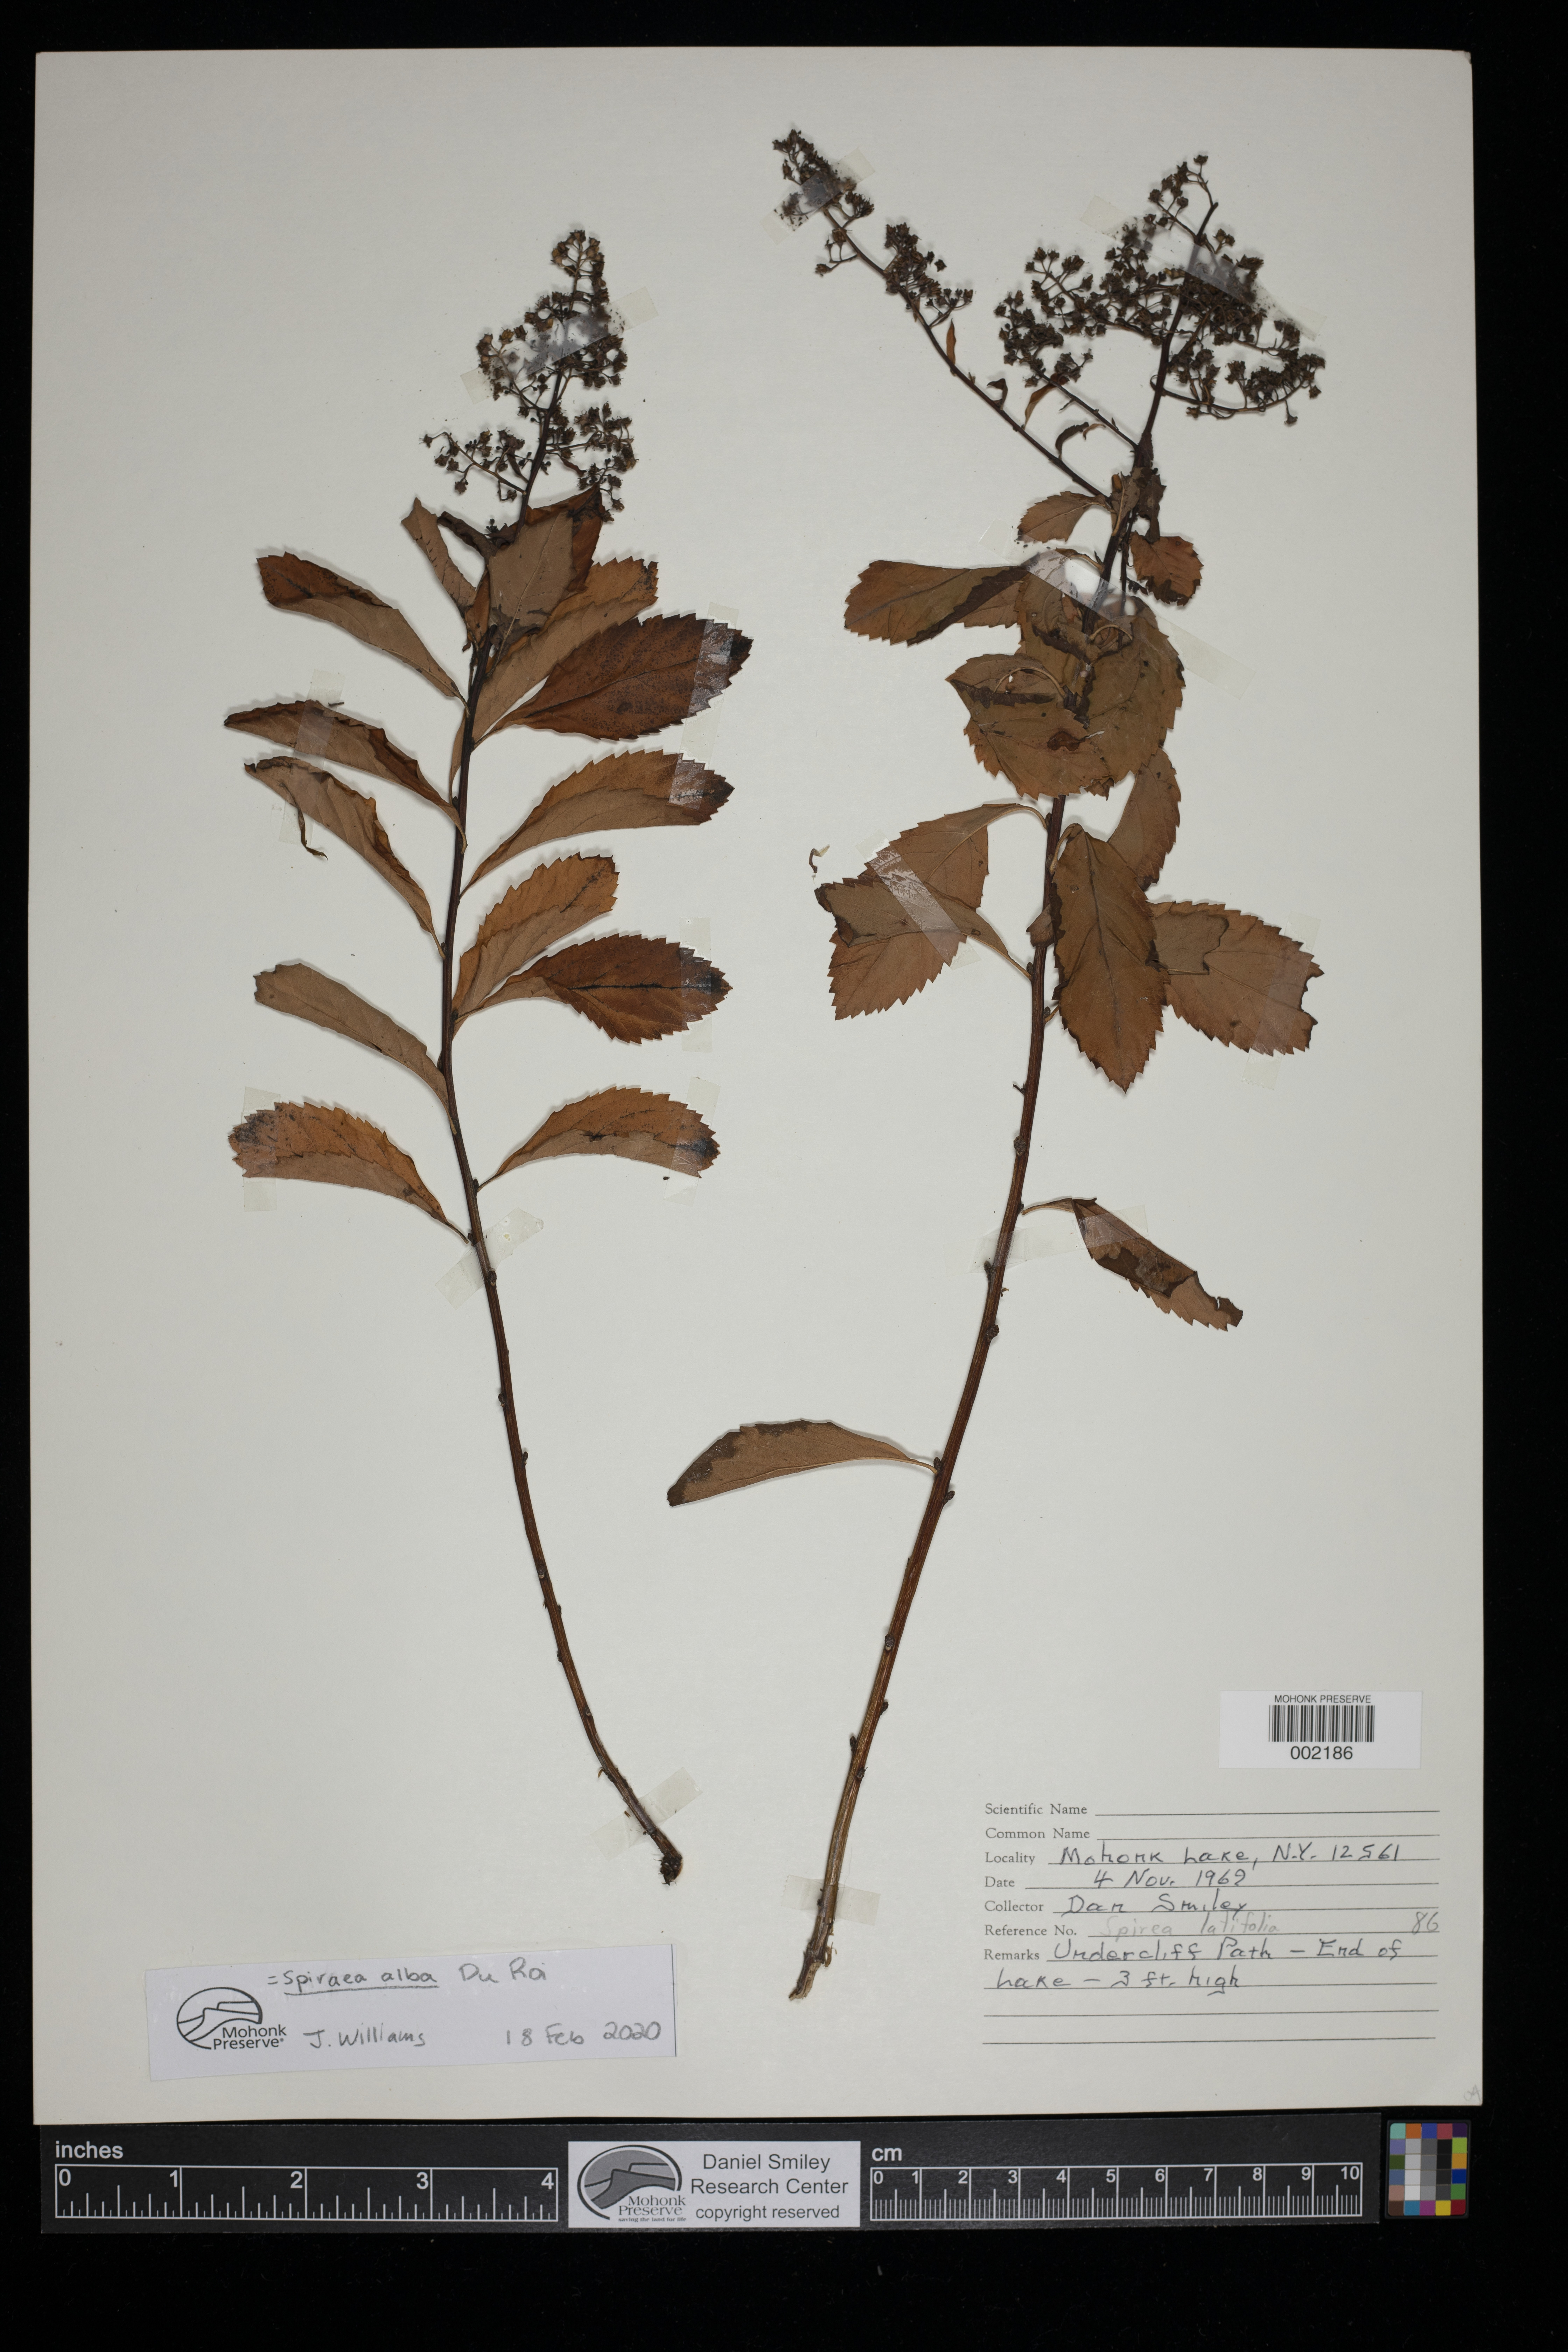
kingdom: Plantae
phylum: Tracheophyta
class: Magnoliopsida
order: Rosales
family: Rosaceae
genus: Spiraea
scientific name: Spiraea alba
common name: Pale bridewort
